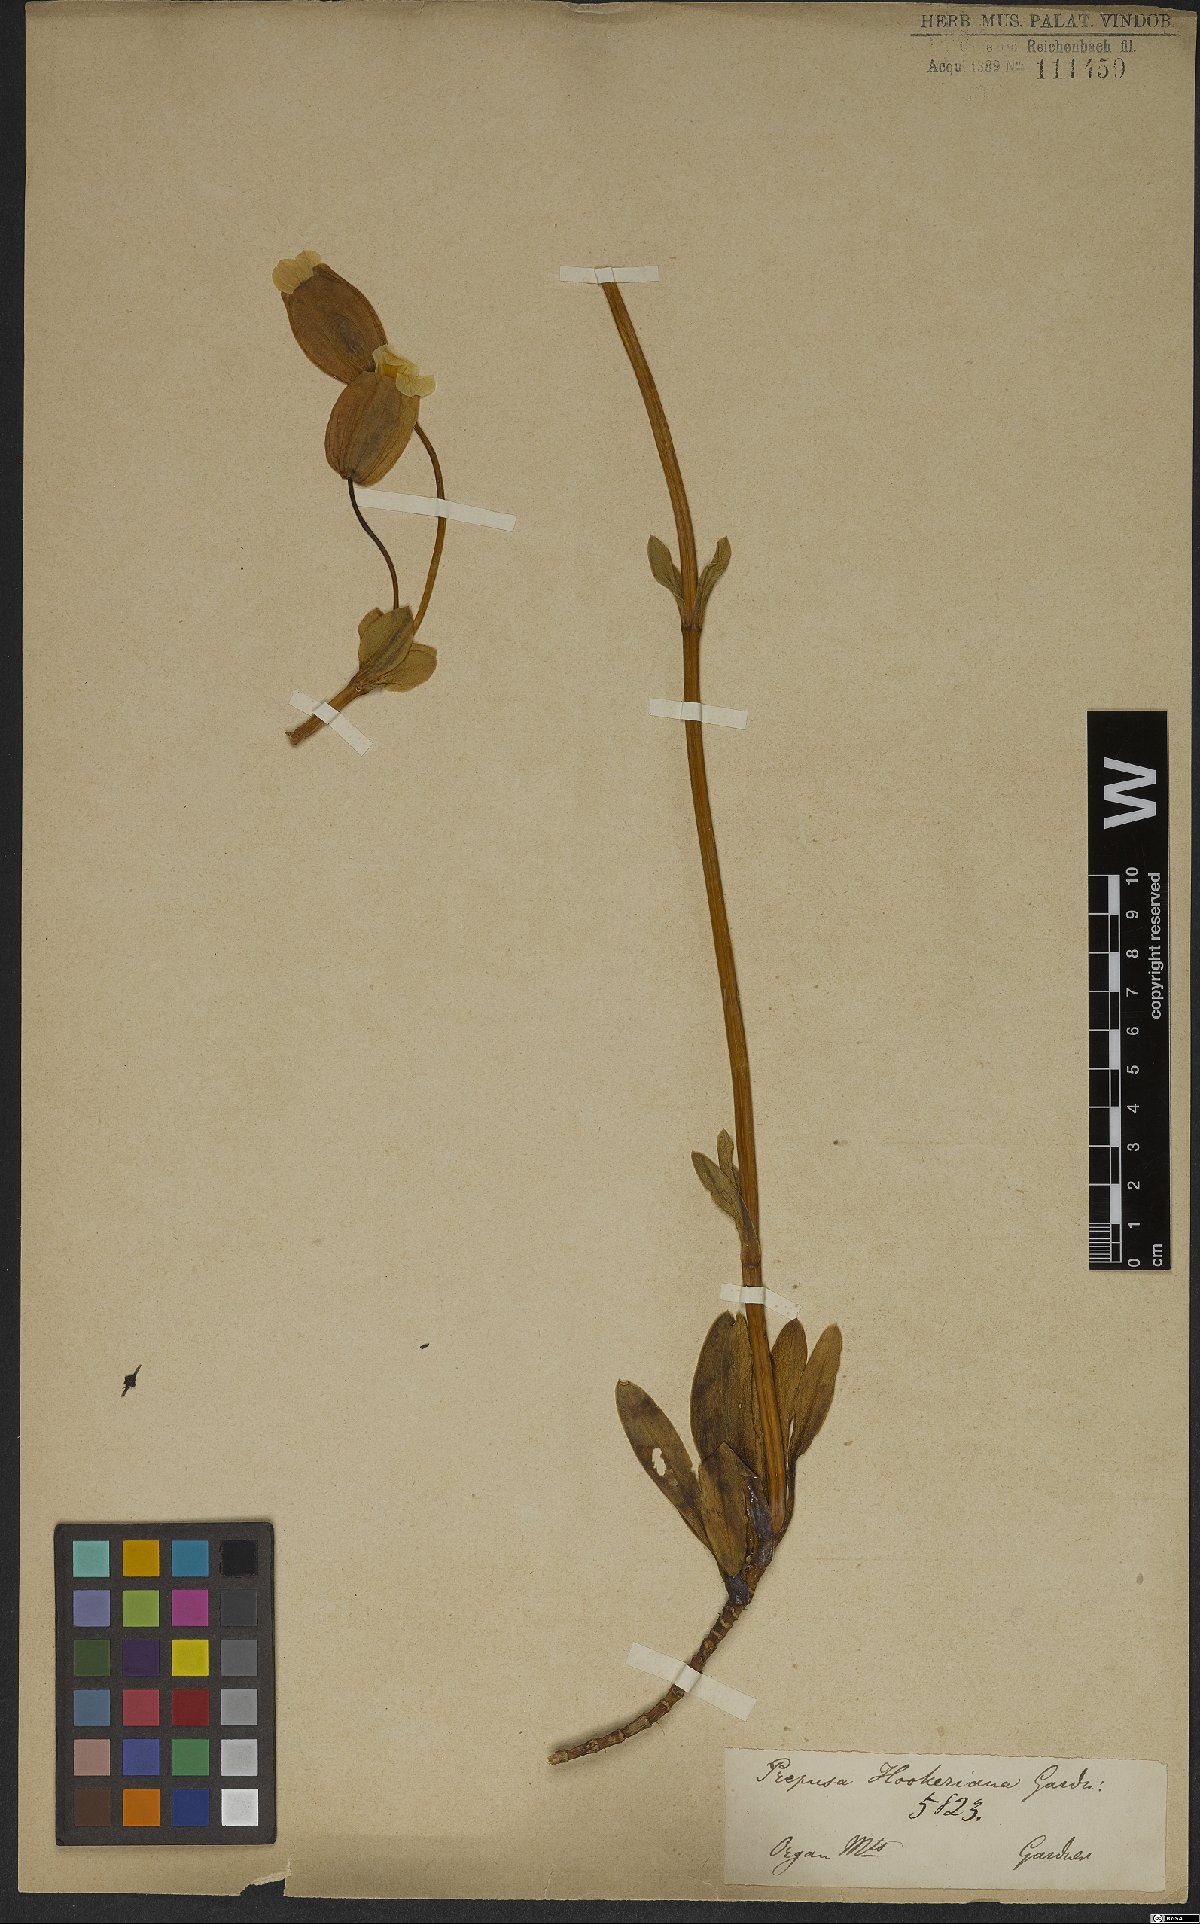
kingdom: Plantae
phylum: Tracheophyta
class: Magnoliopsida
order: Gentianales
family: Gentianaceae
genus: Prepusa
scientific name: Prepusa hookeriana
